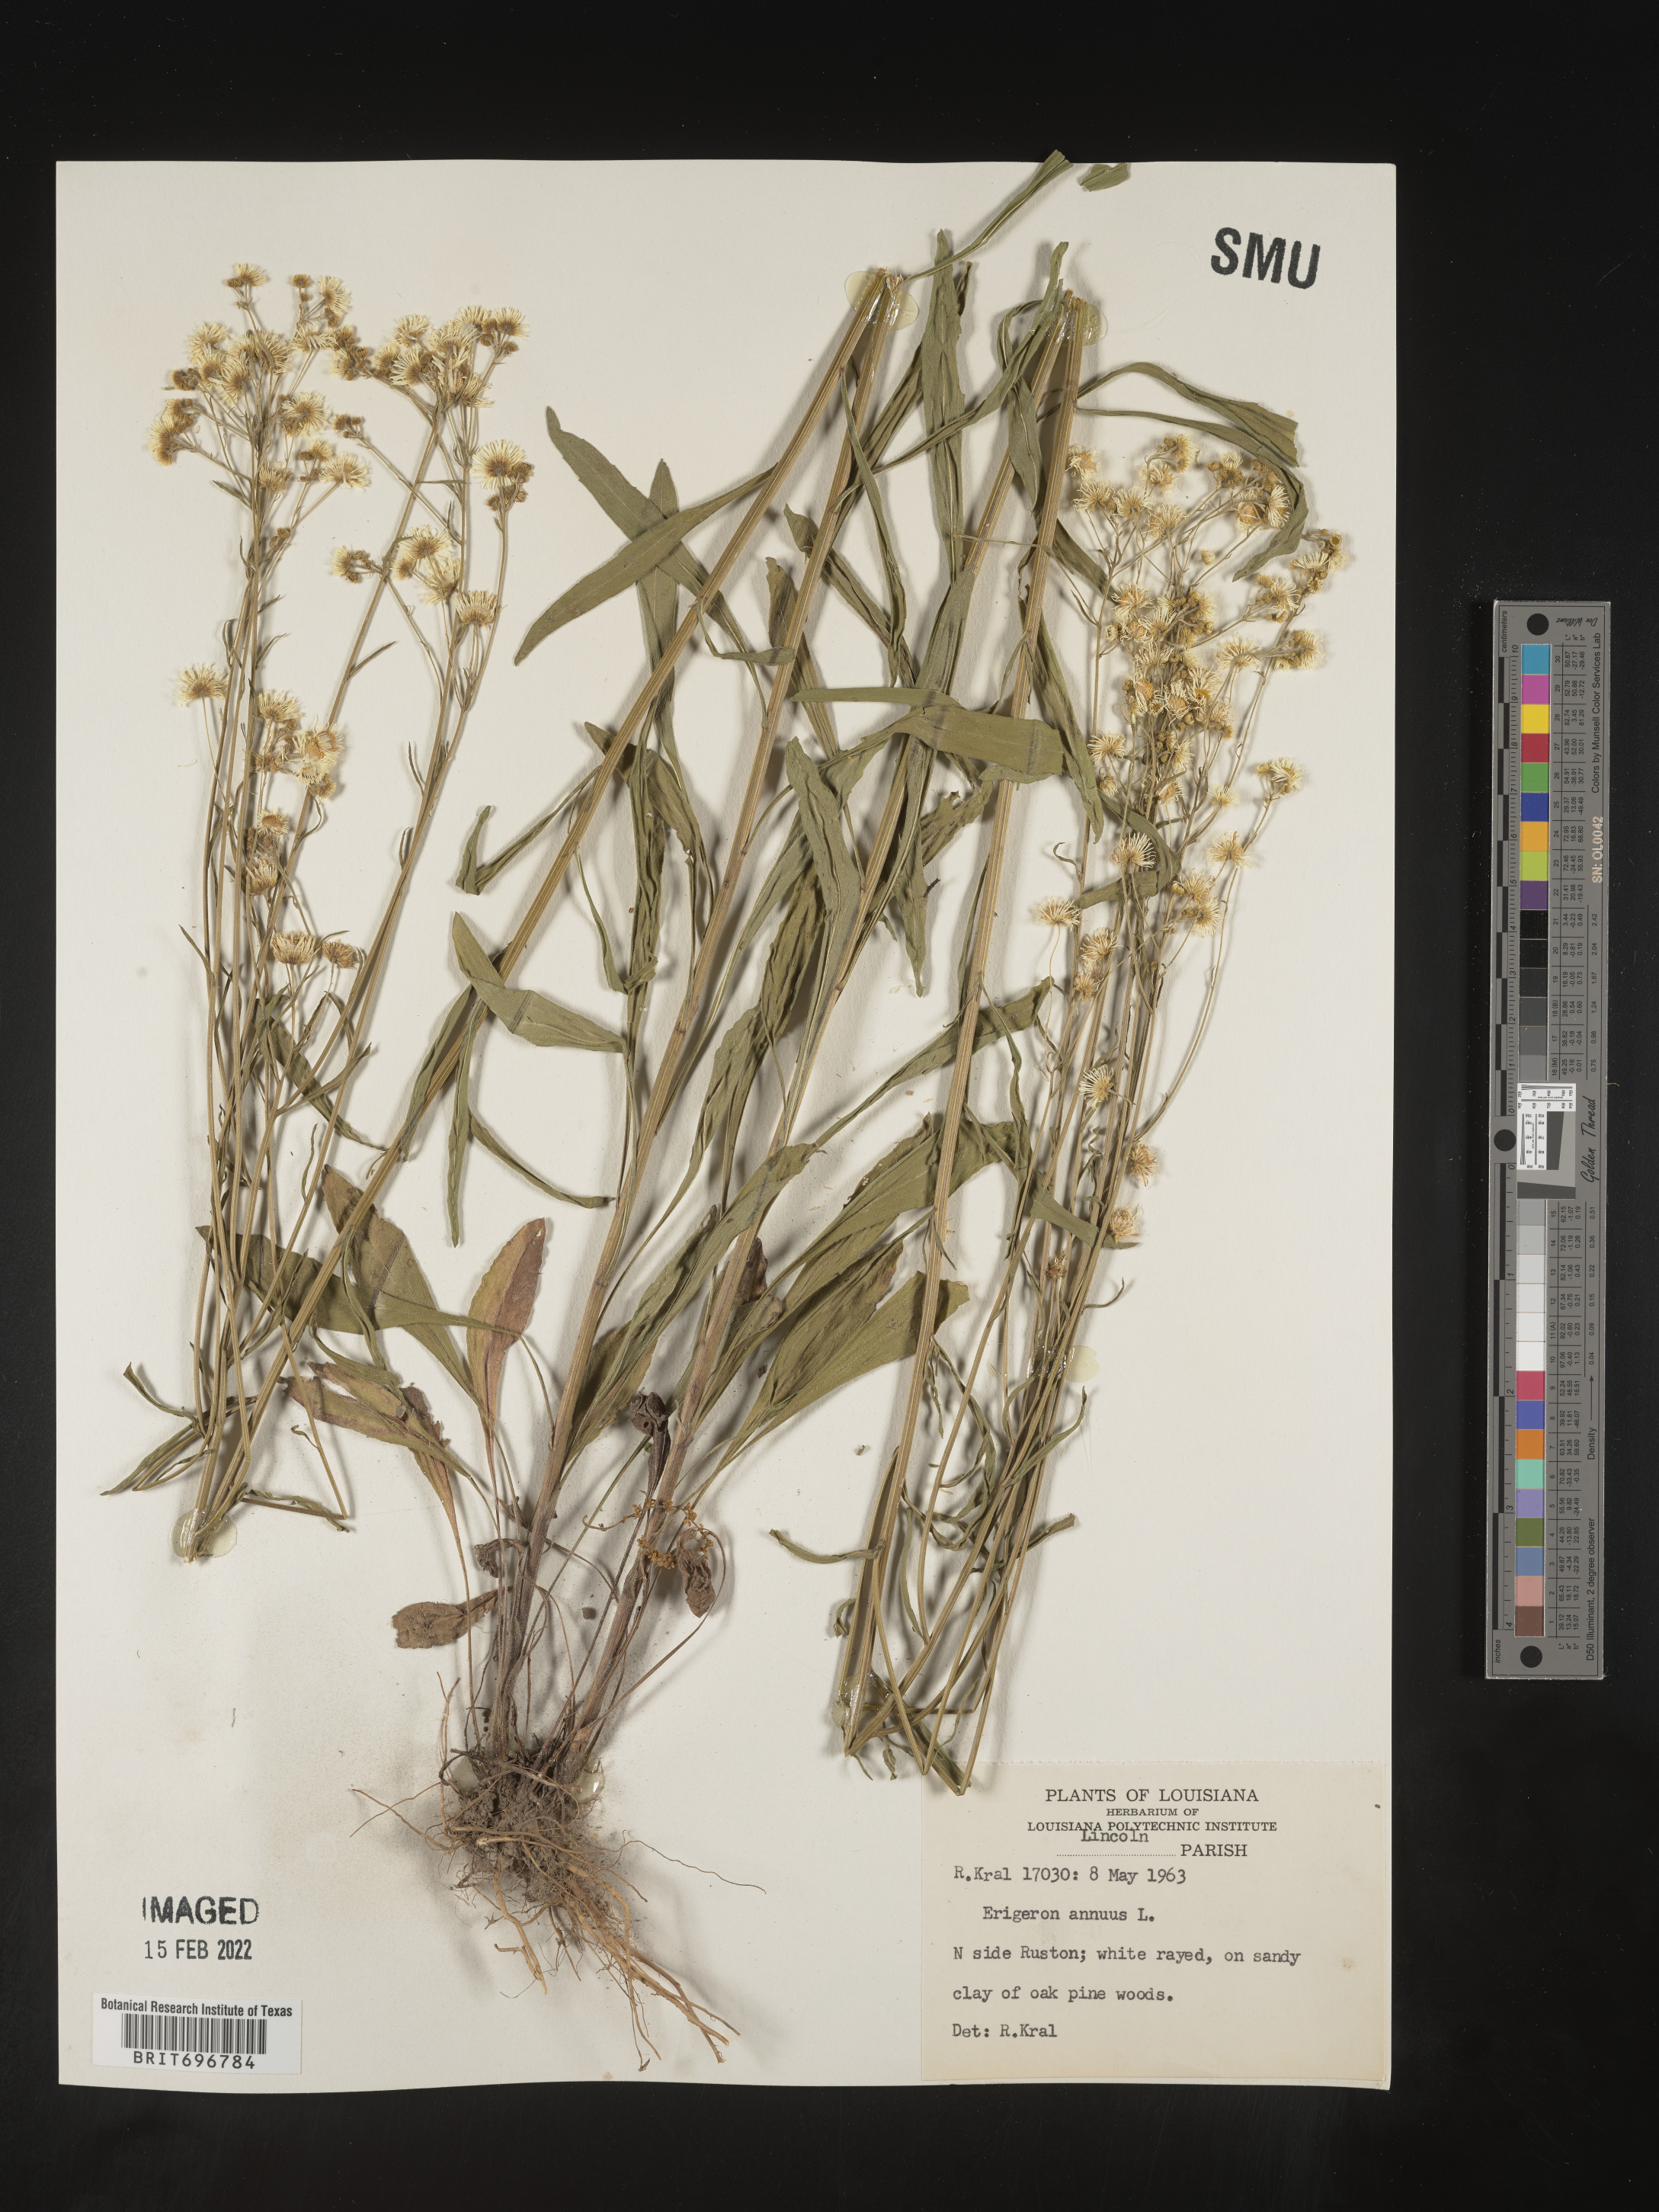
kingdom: Plantae
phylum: Tracheophyta
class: Magnoliopsida
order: Asterales
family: Asteraceae
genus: Erigeron
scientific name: Erigeron annuus
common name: Tall fleabane
